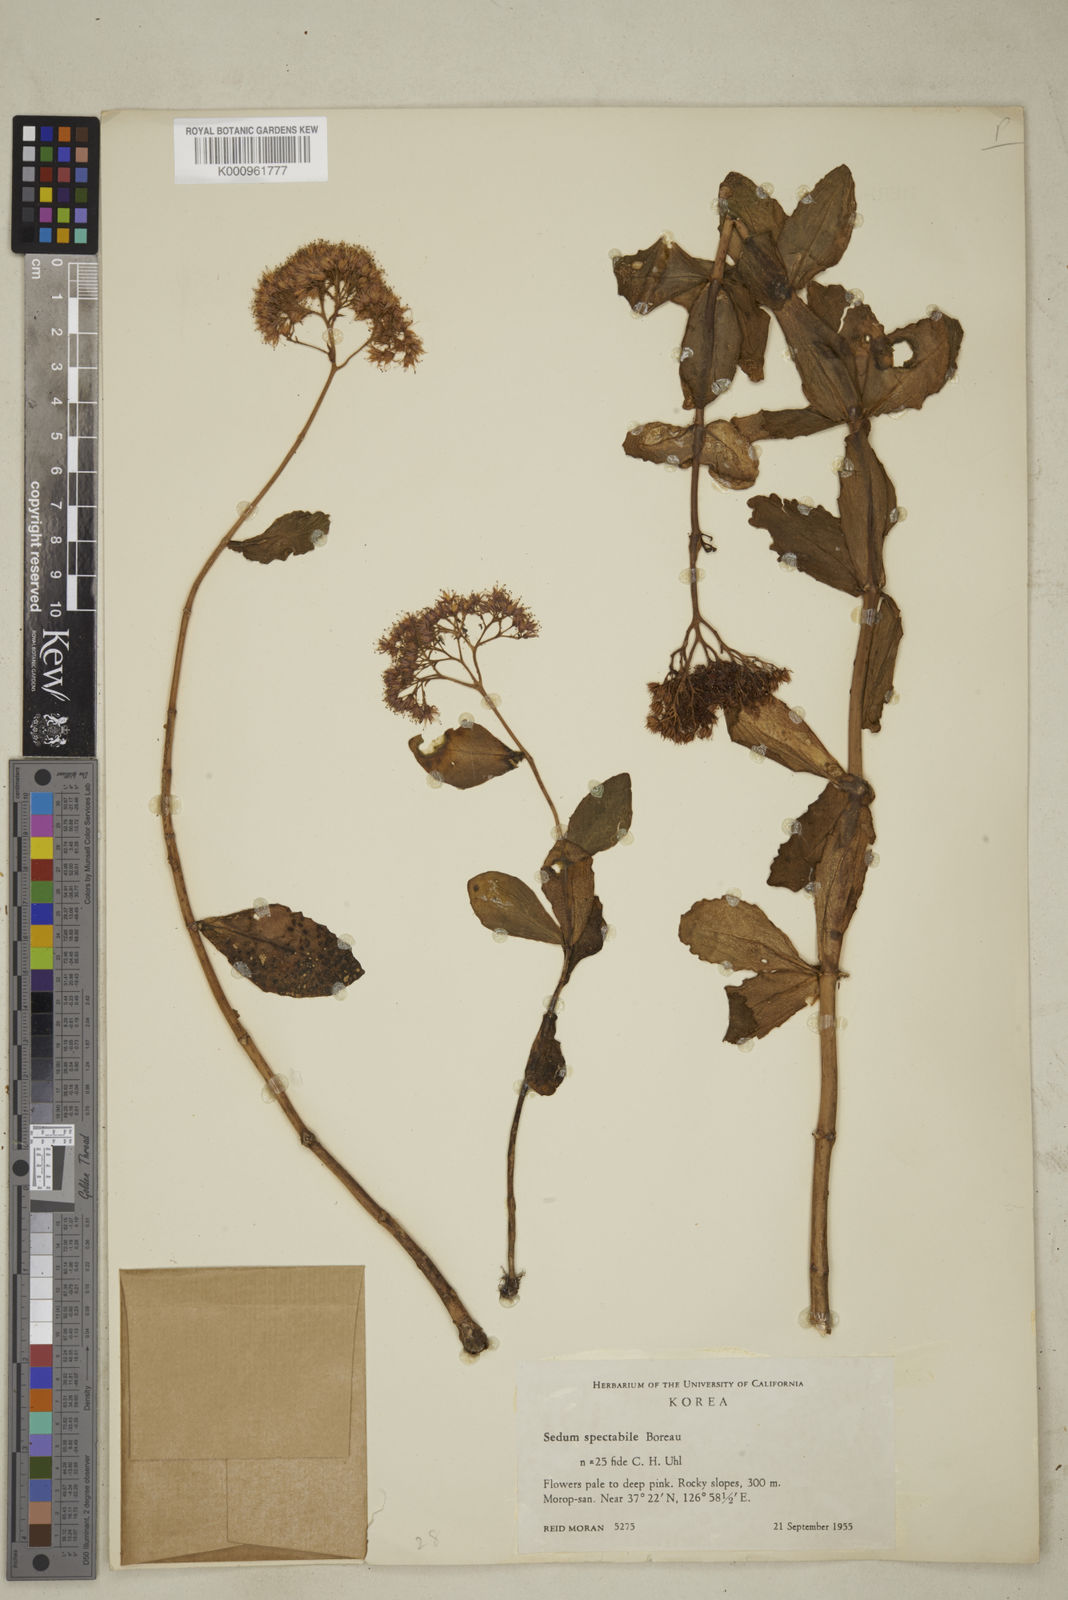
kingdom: Plantae
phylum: Tracheophyta
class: Magnoliopsida
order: Saxifragales
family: Crassulaceae
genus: Hylotelephium
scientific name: Hylotelephium spectabile
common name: Showy stonecrop
